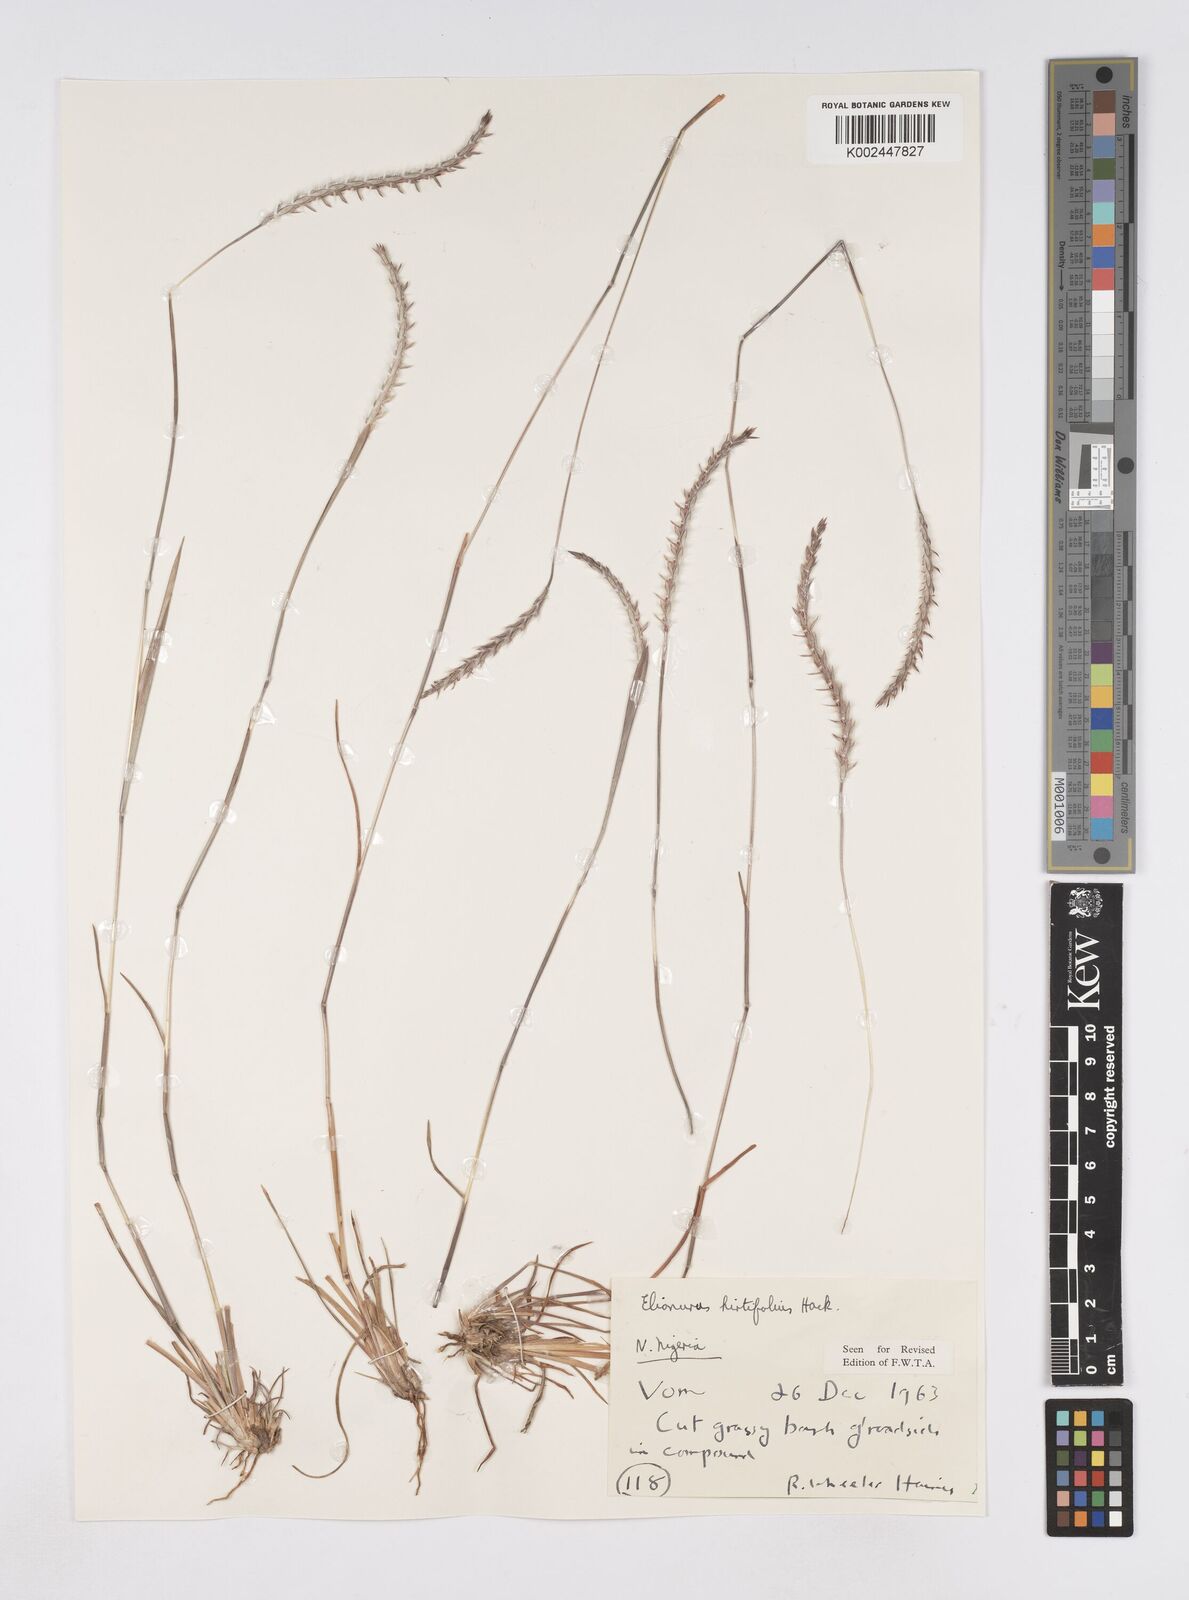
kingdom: Plantae
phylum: Tracheophyta
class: Liliopsida
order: Poales
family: Poaceae
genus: Elionurus
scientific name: Elionurus hirtifolius
